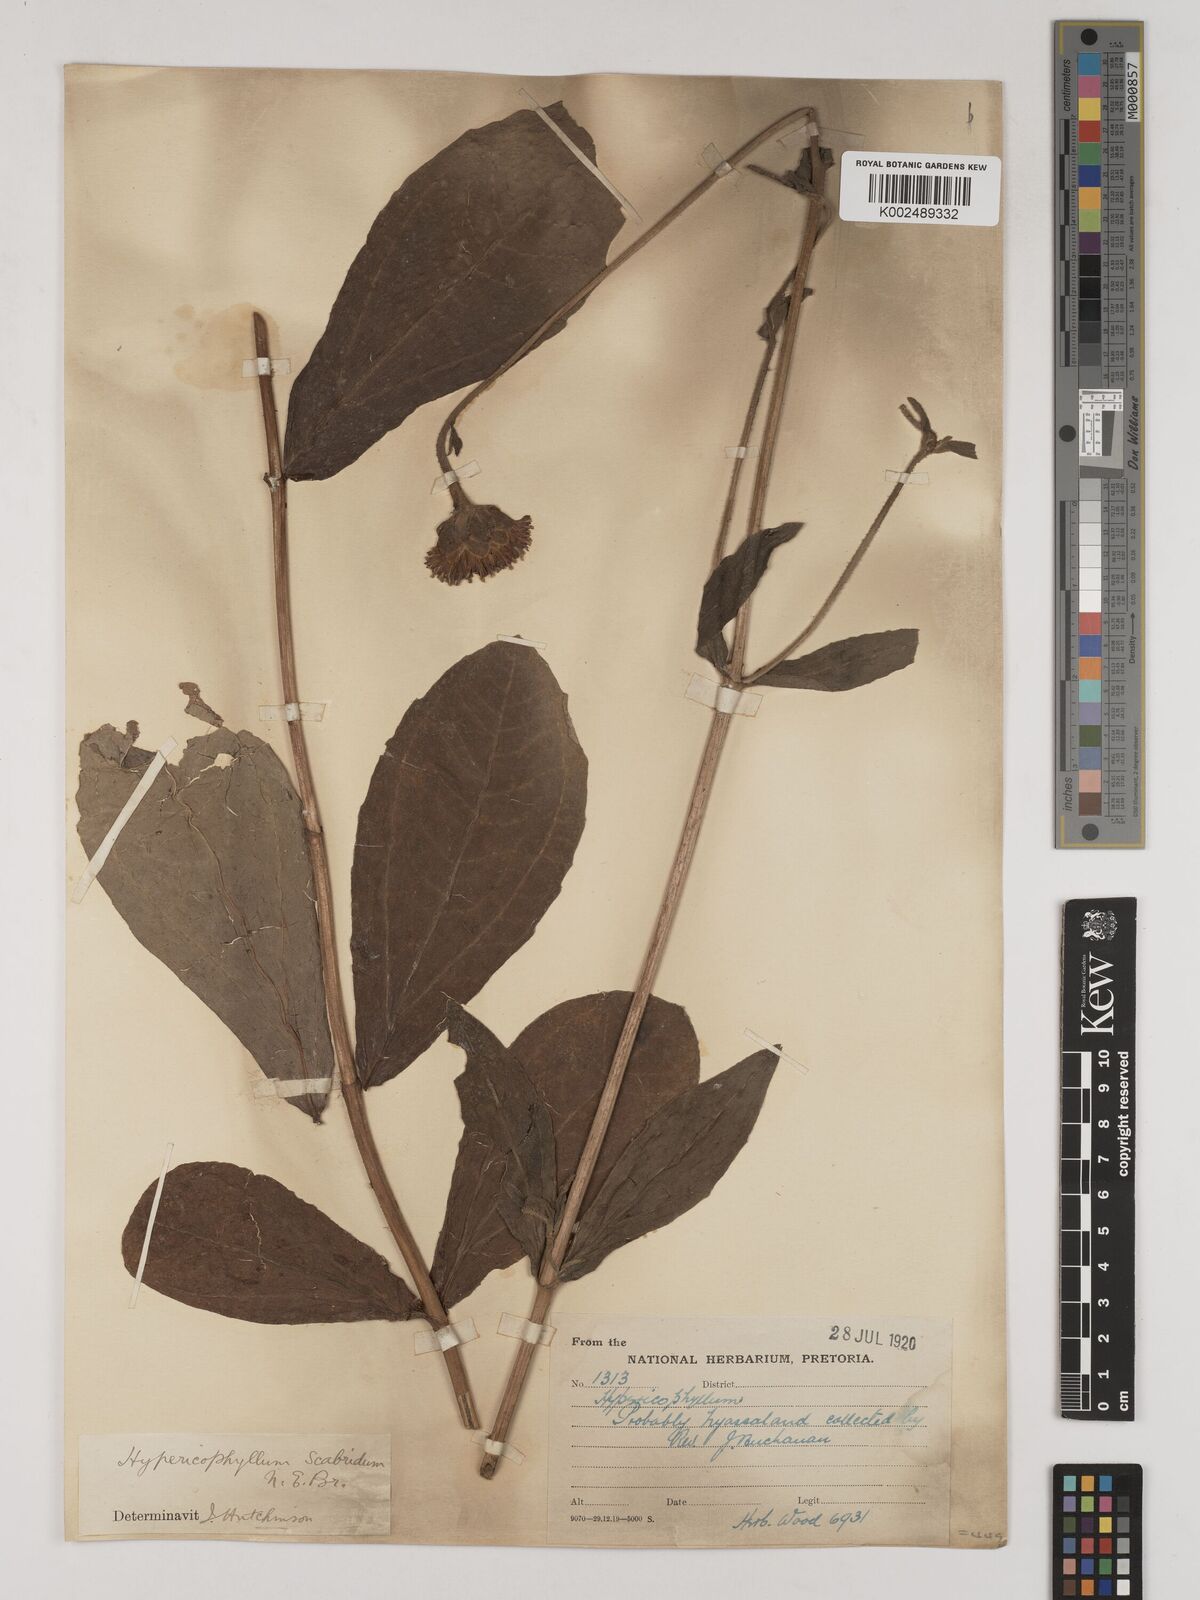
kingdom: Plantae
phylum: Tracheophyta
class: Magnoliopsida
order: Asterales
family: Asteraceae
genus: Hypericophyllum
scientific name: Hypericophyllum angolense
